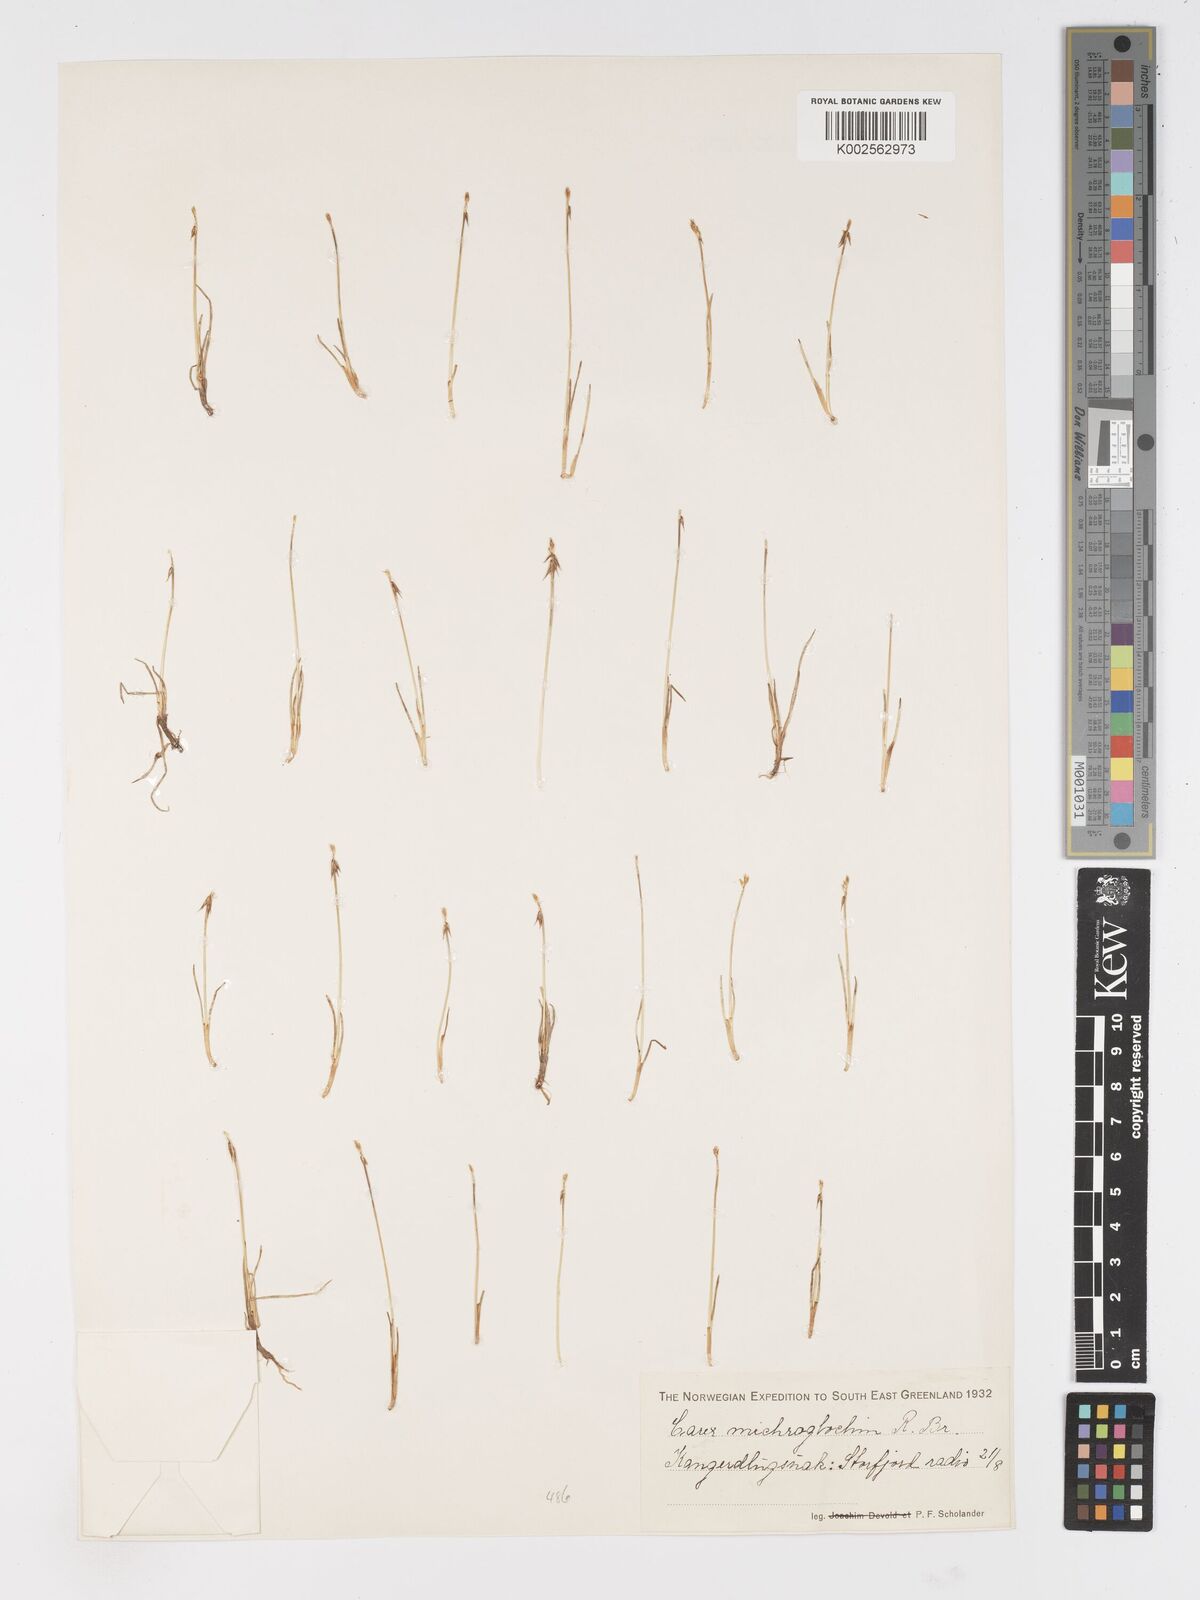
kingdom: Plantae
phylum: Tracheophyta
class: Liliopsida
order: Poales
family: Cyperaceae
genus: Carex
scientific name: Carex microglochin
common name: Bristle sedge
